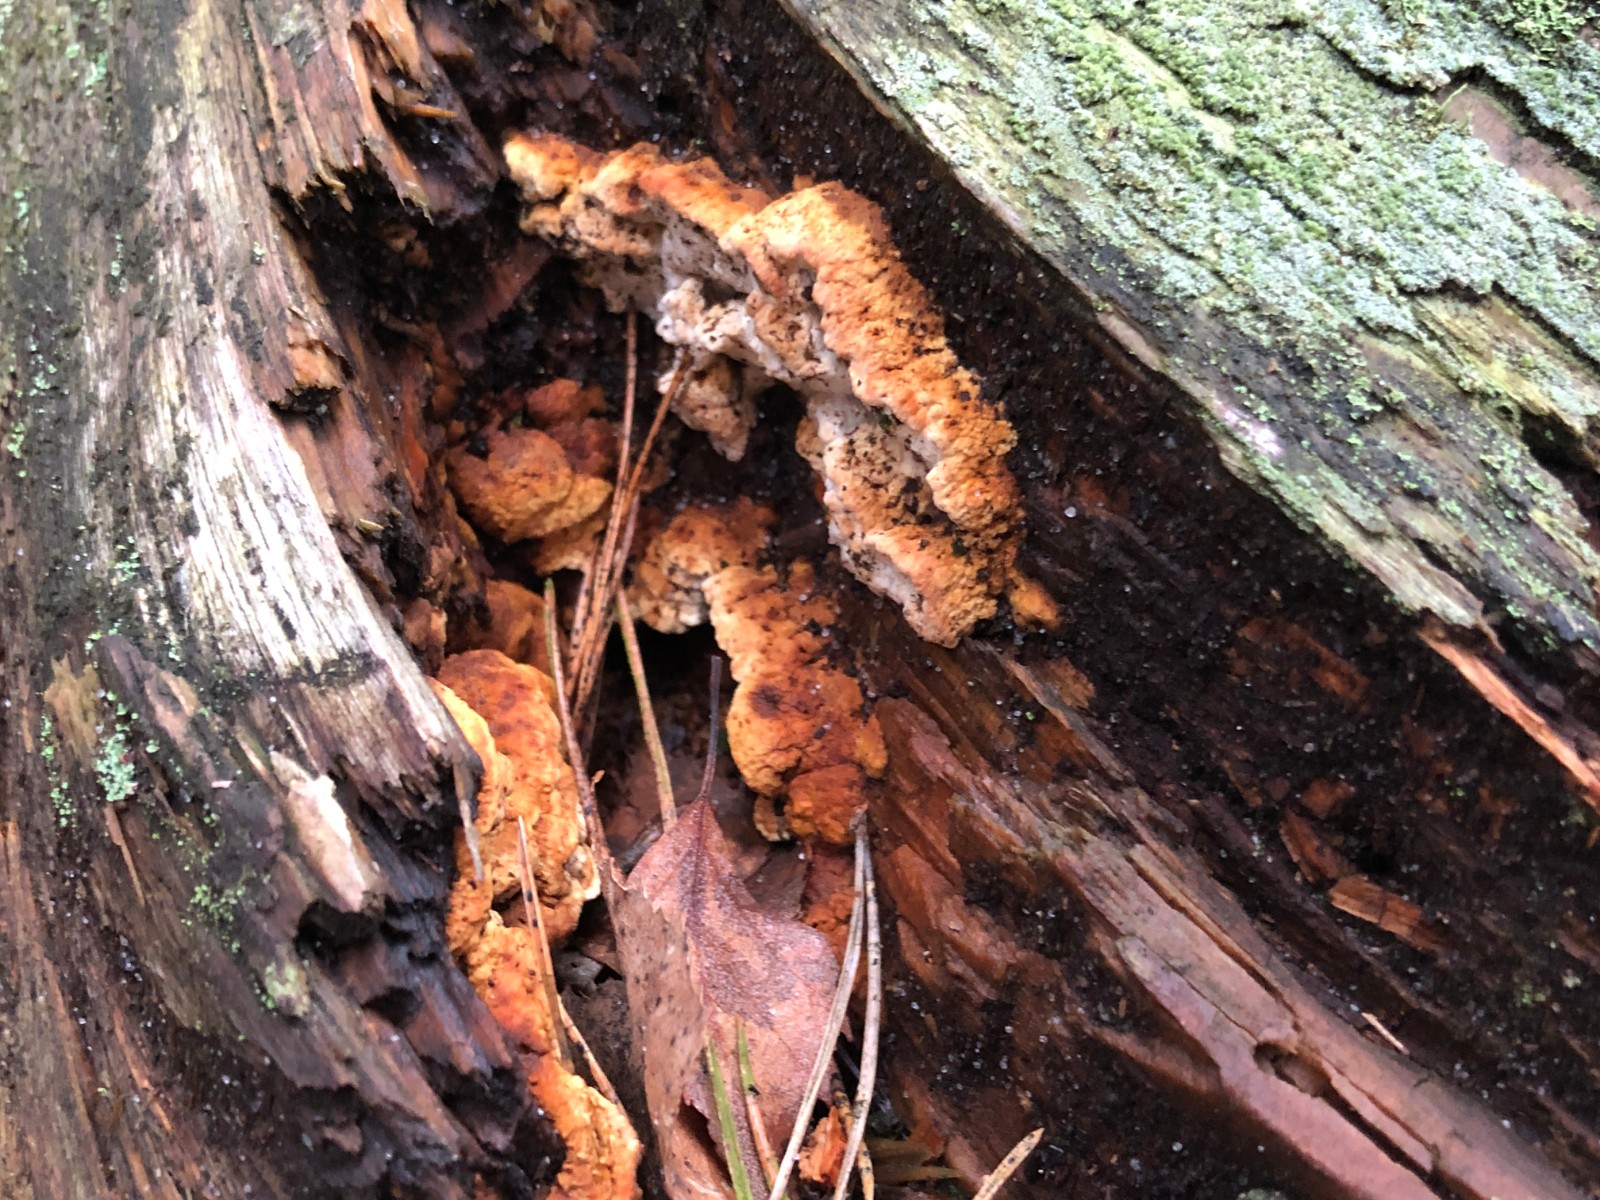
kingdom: Fungi
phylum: Basidiomycota
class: Agaricomycetes
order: Gloeophyllales
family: Gloeophyllaceae
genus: Gloeophyllum
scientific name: Gloeophyllum odoratum
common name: duftende korkhat
